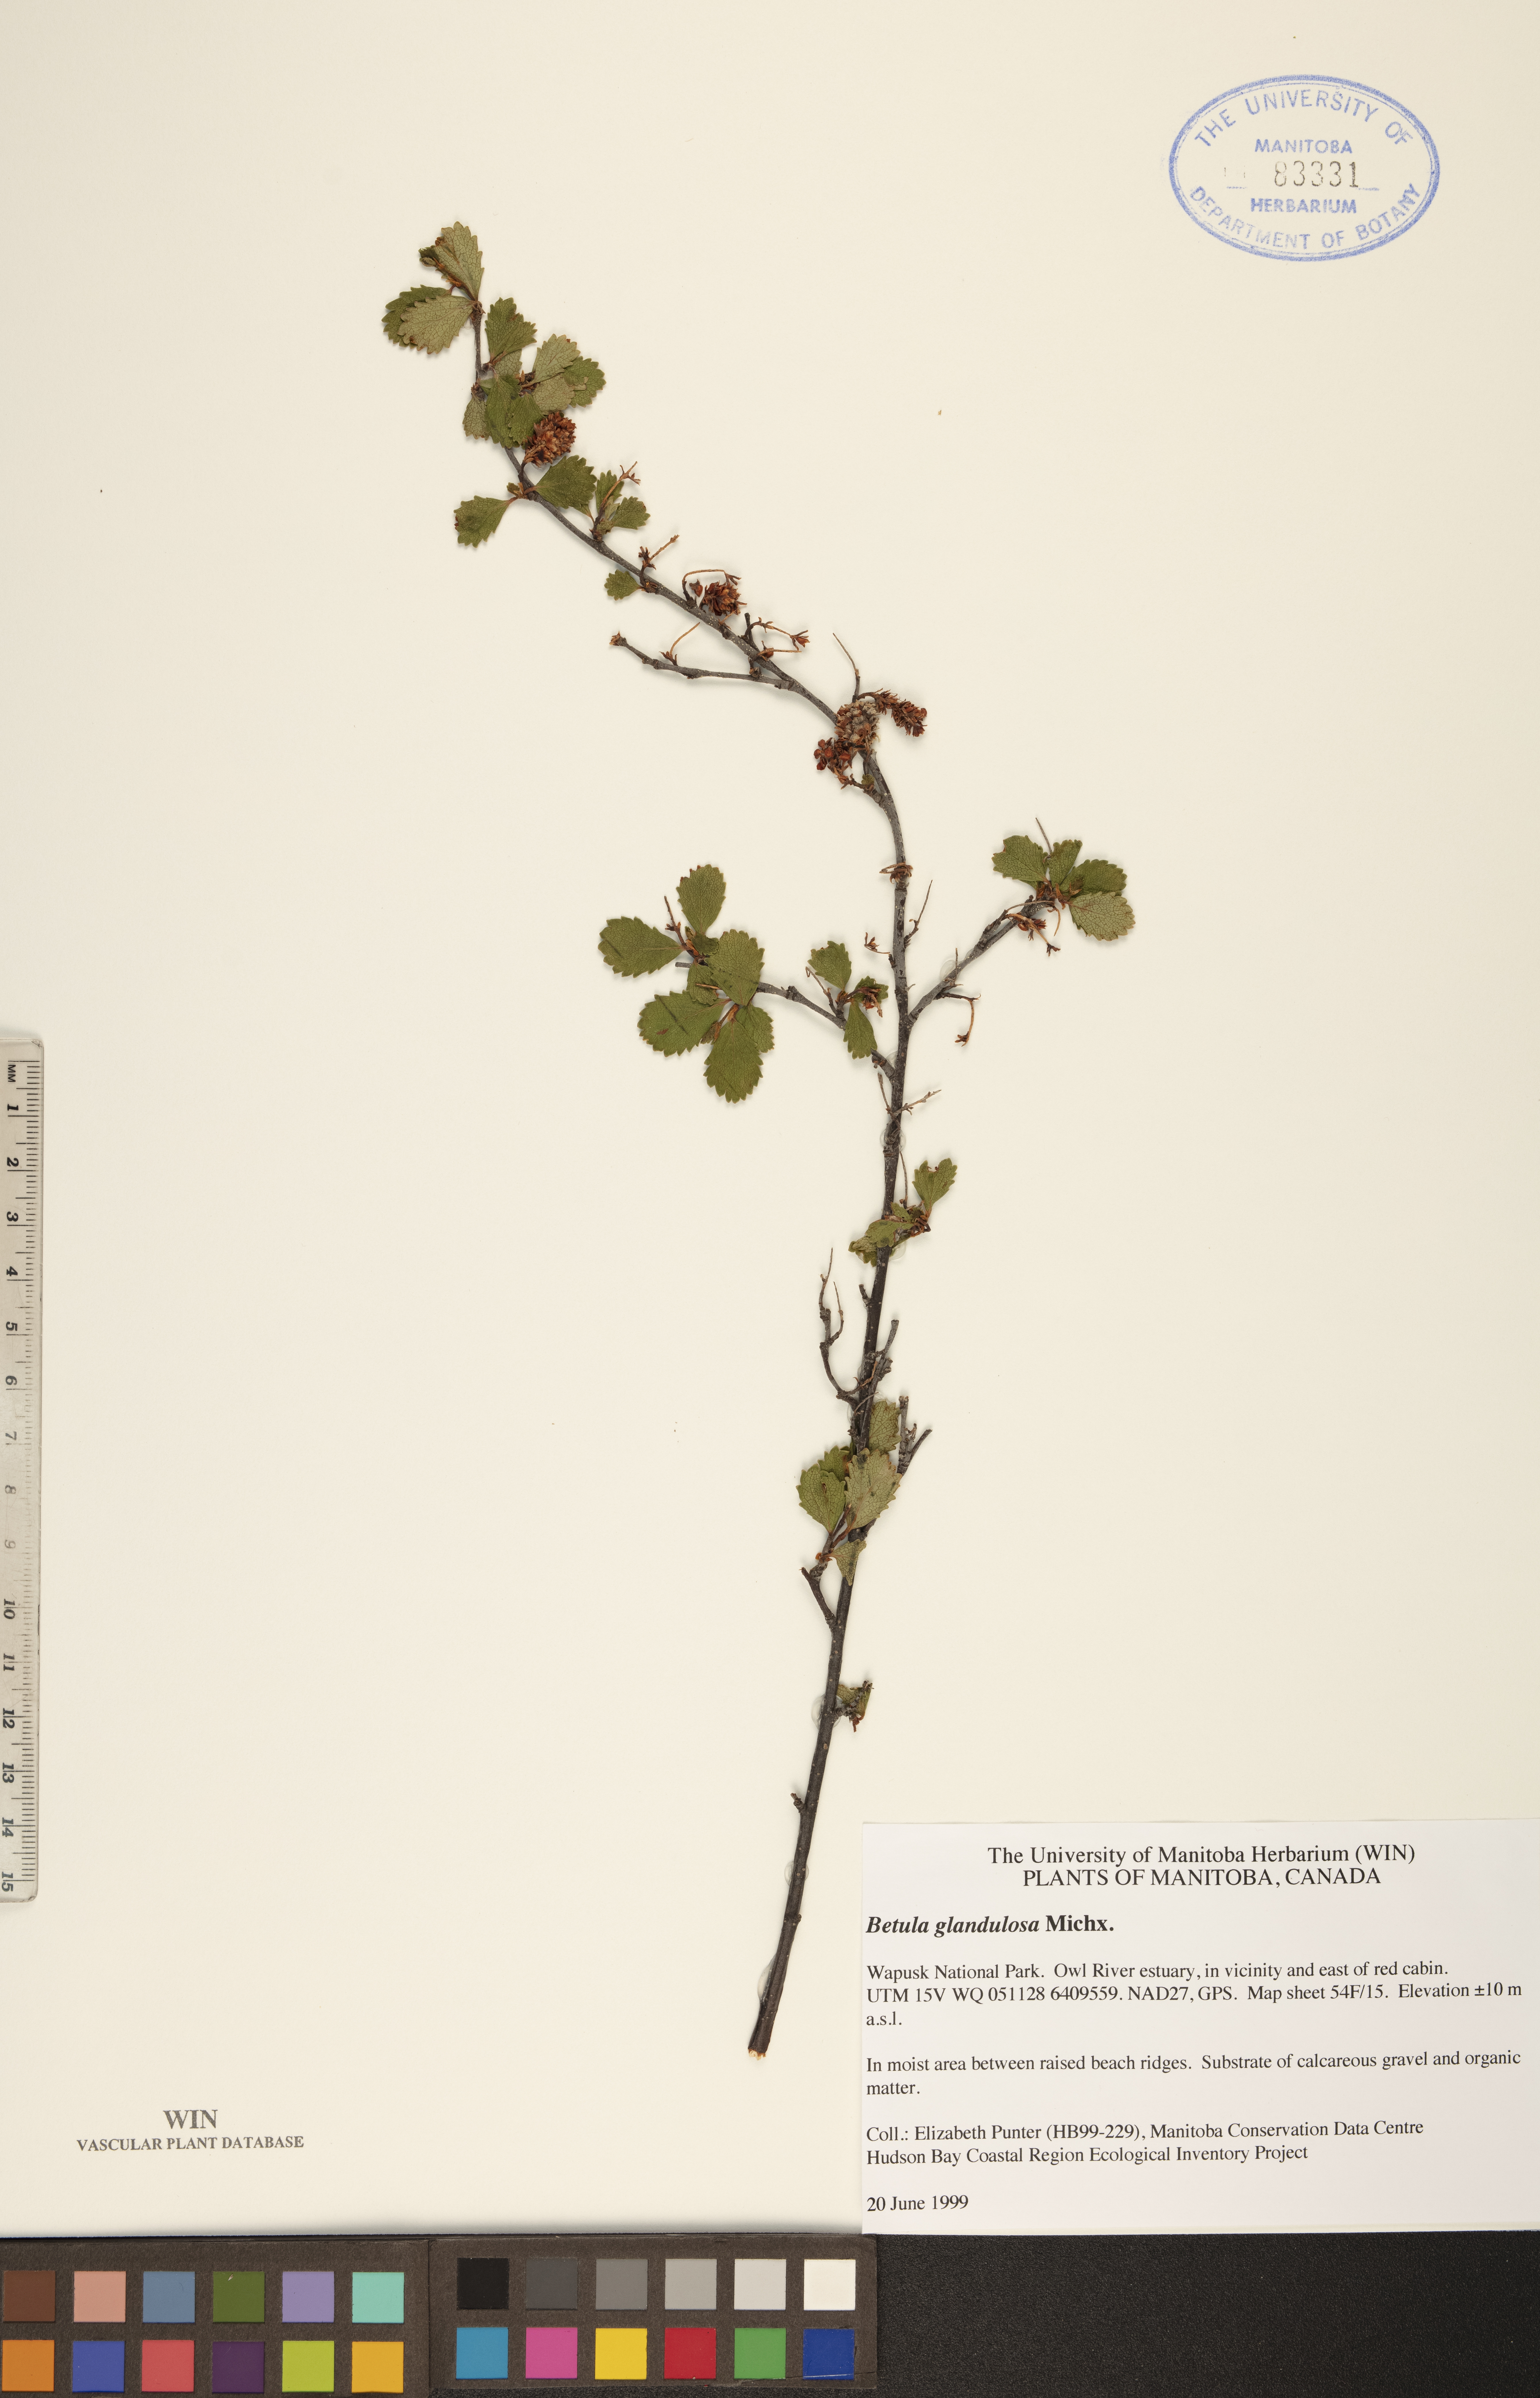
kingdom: Plantae
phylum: Tracheophyta
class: Magnoliopsida
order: Fagales
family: Betulaceae
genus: Betula
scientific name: Betula glandulosa
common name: Dwarf birch
